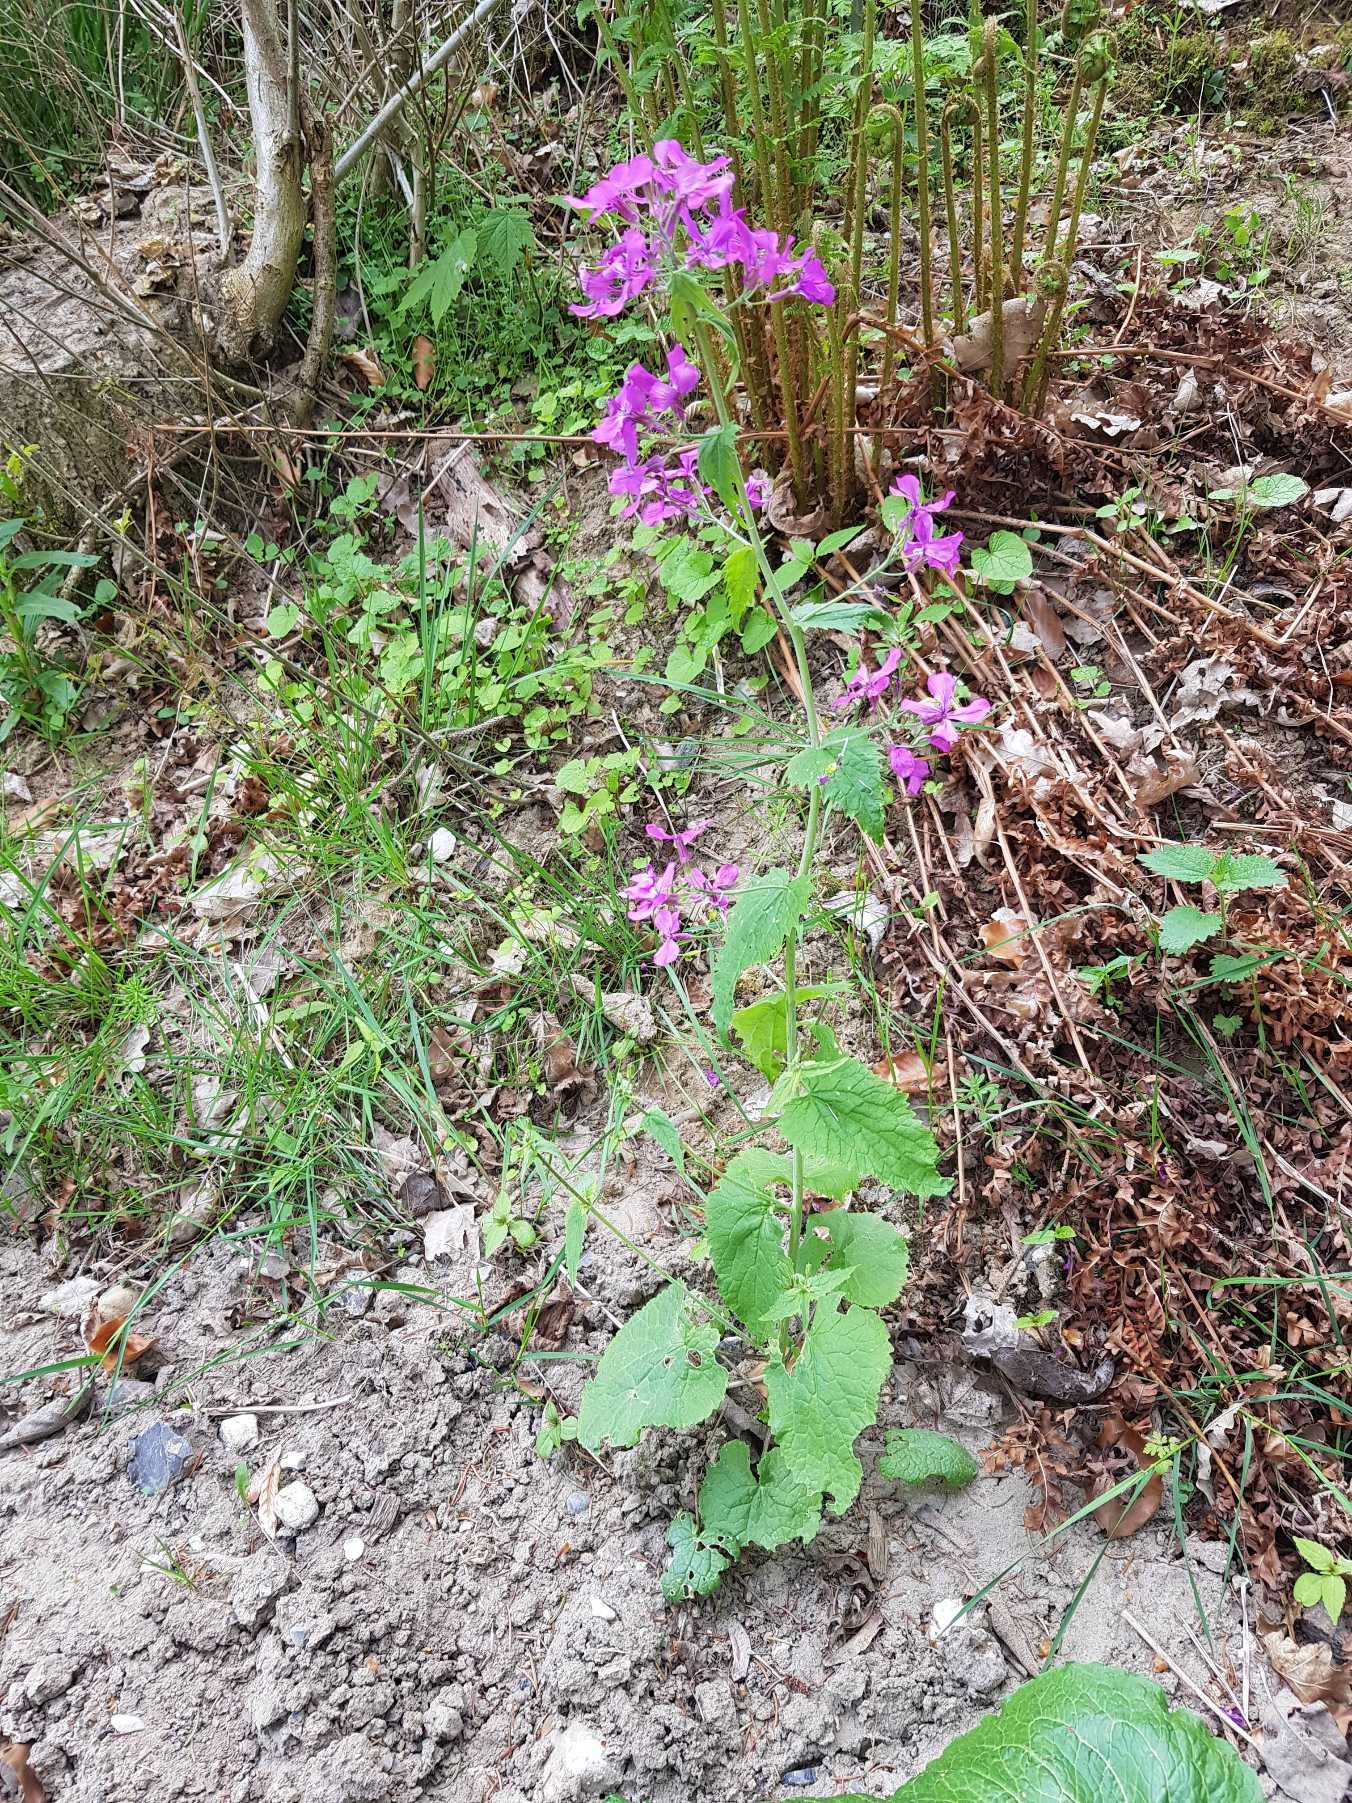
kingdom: Plantae
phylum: Tracheophyta
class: Magnoliopsida
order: Brassicales
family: Brassicaceae
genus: Lunaria
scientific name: Lunaria annua
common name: Judaspenge
